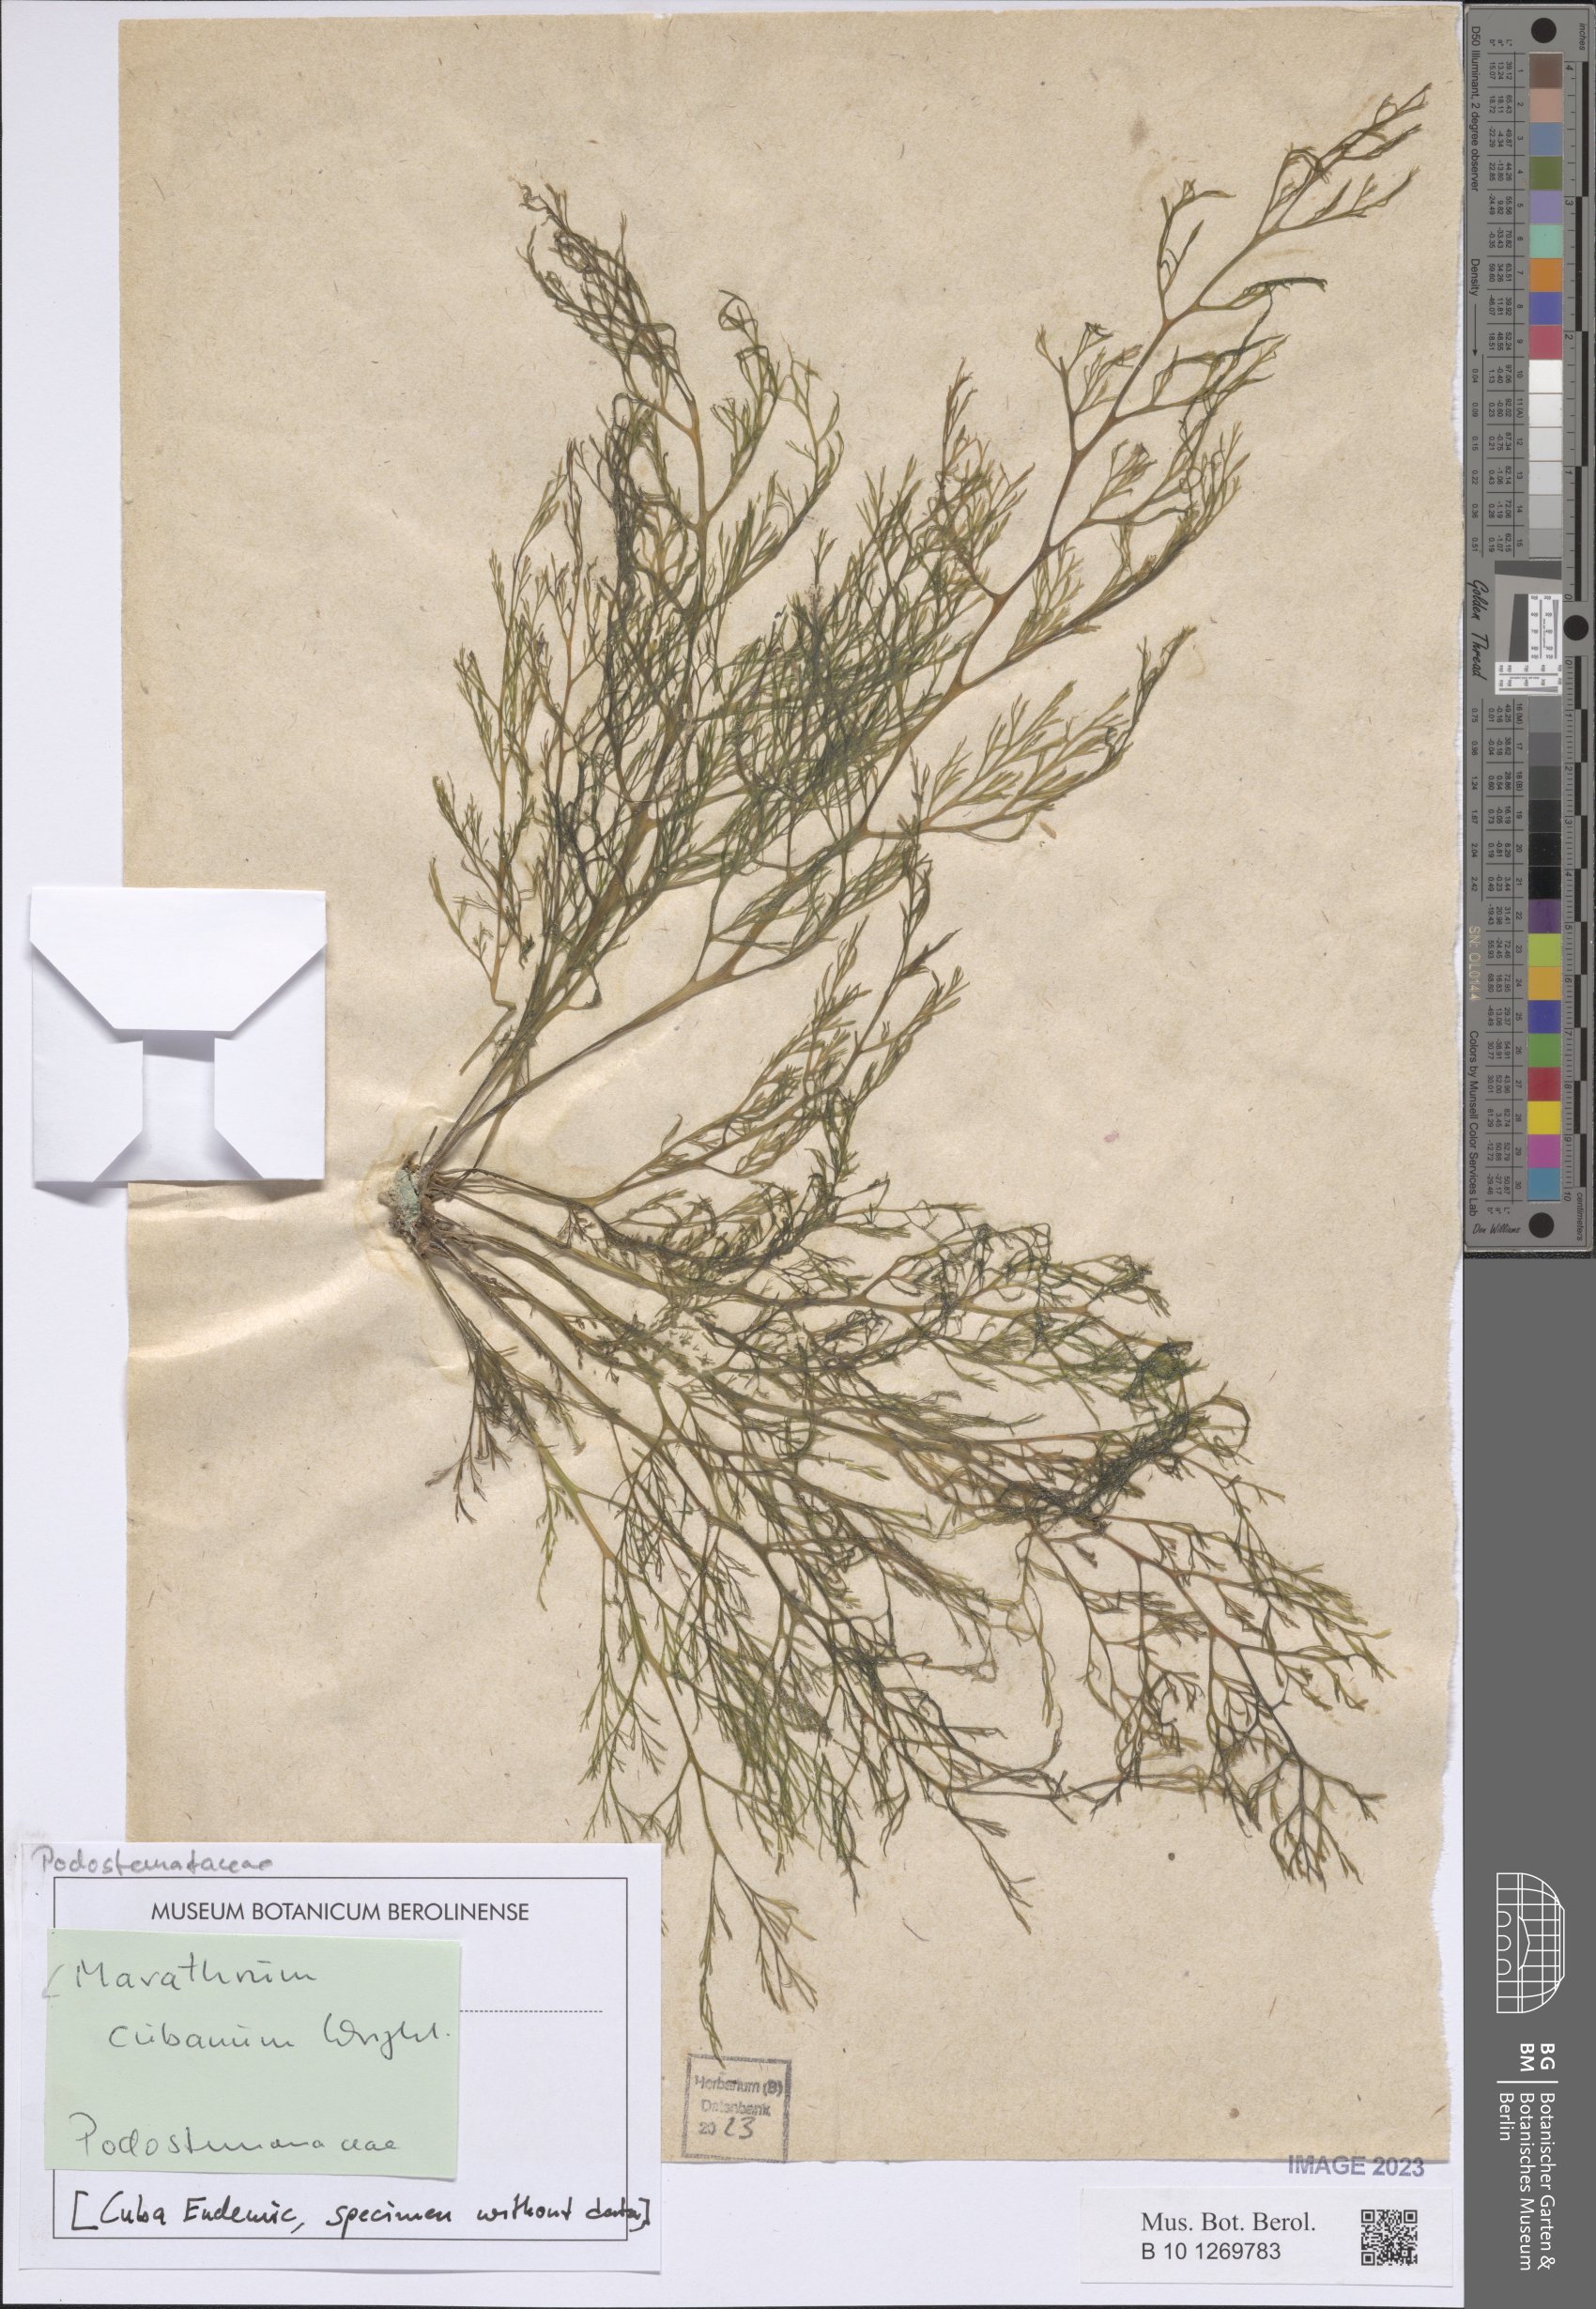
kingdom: Plantae
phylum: Tracheophyta
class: Magnoliopsida
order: Malpighiales
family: Podostemaceae
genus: Marathrum
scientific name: Marathrum cubanum
